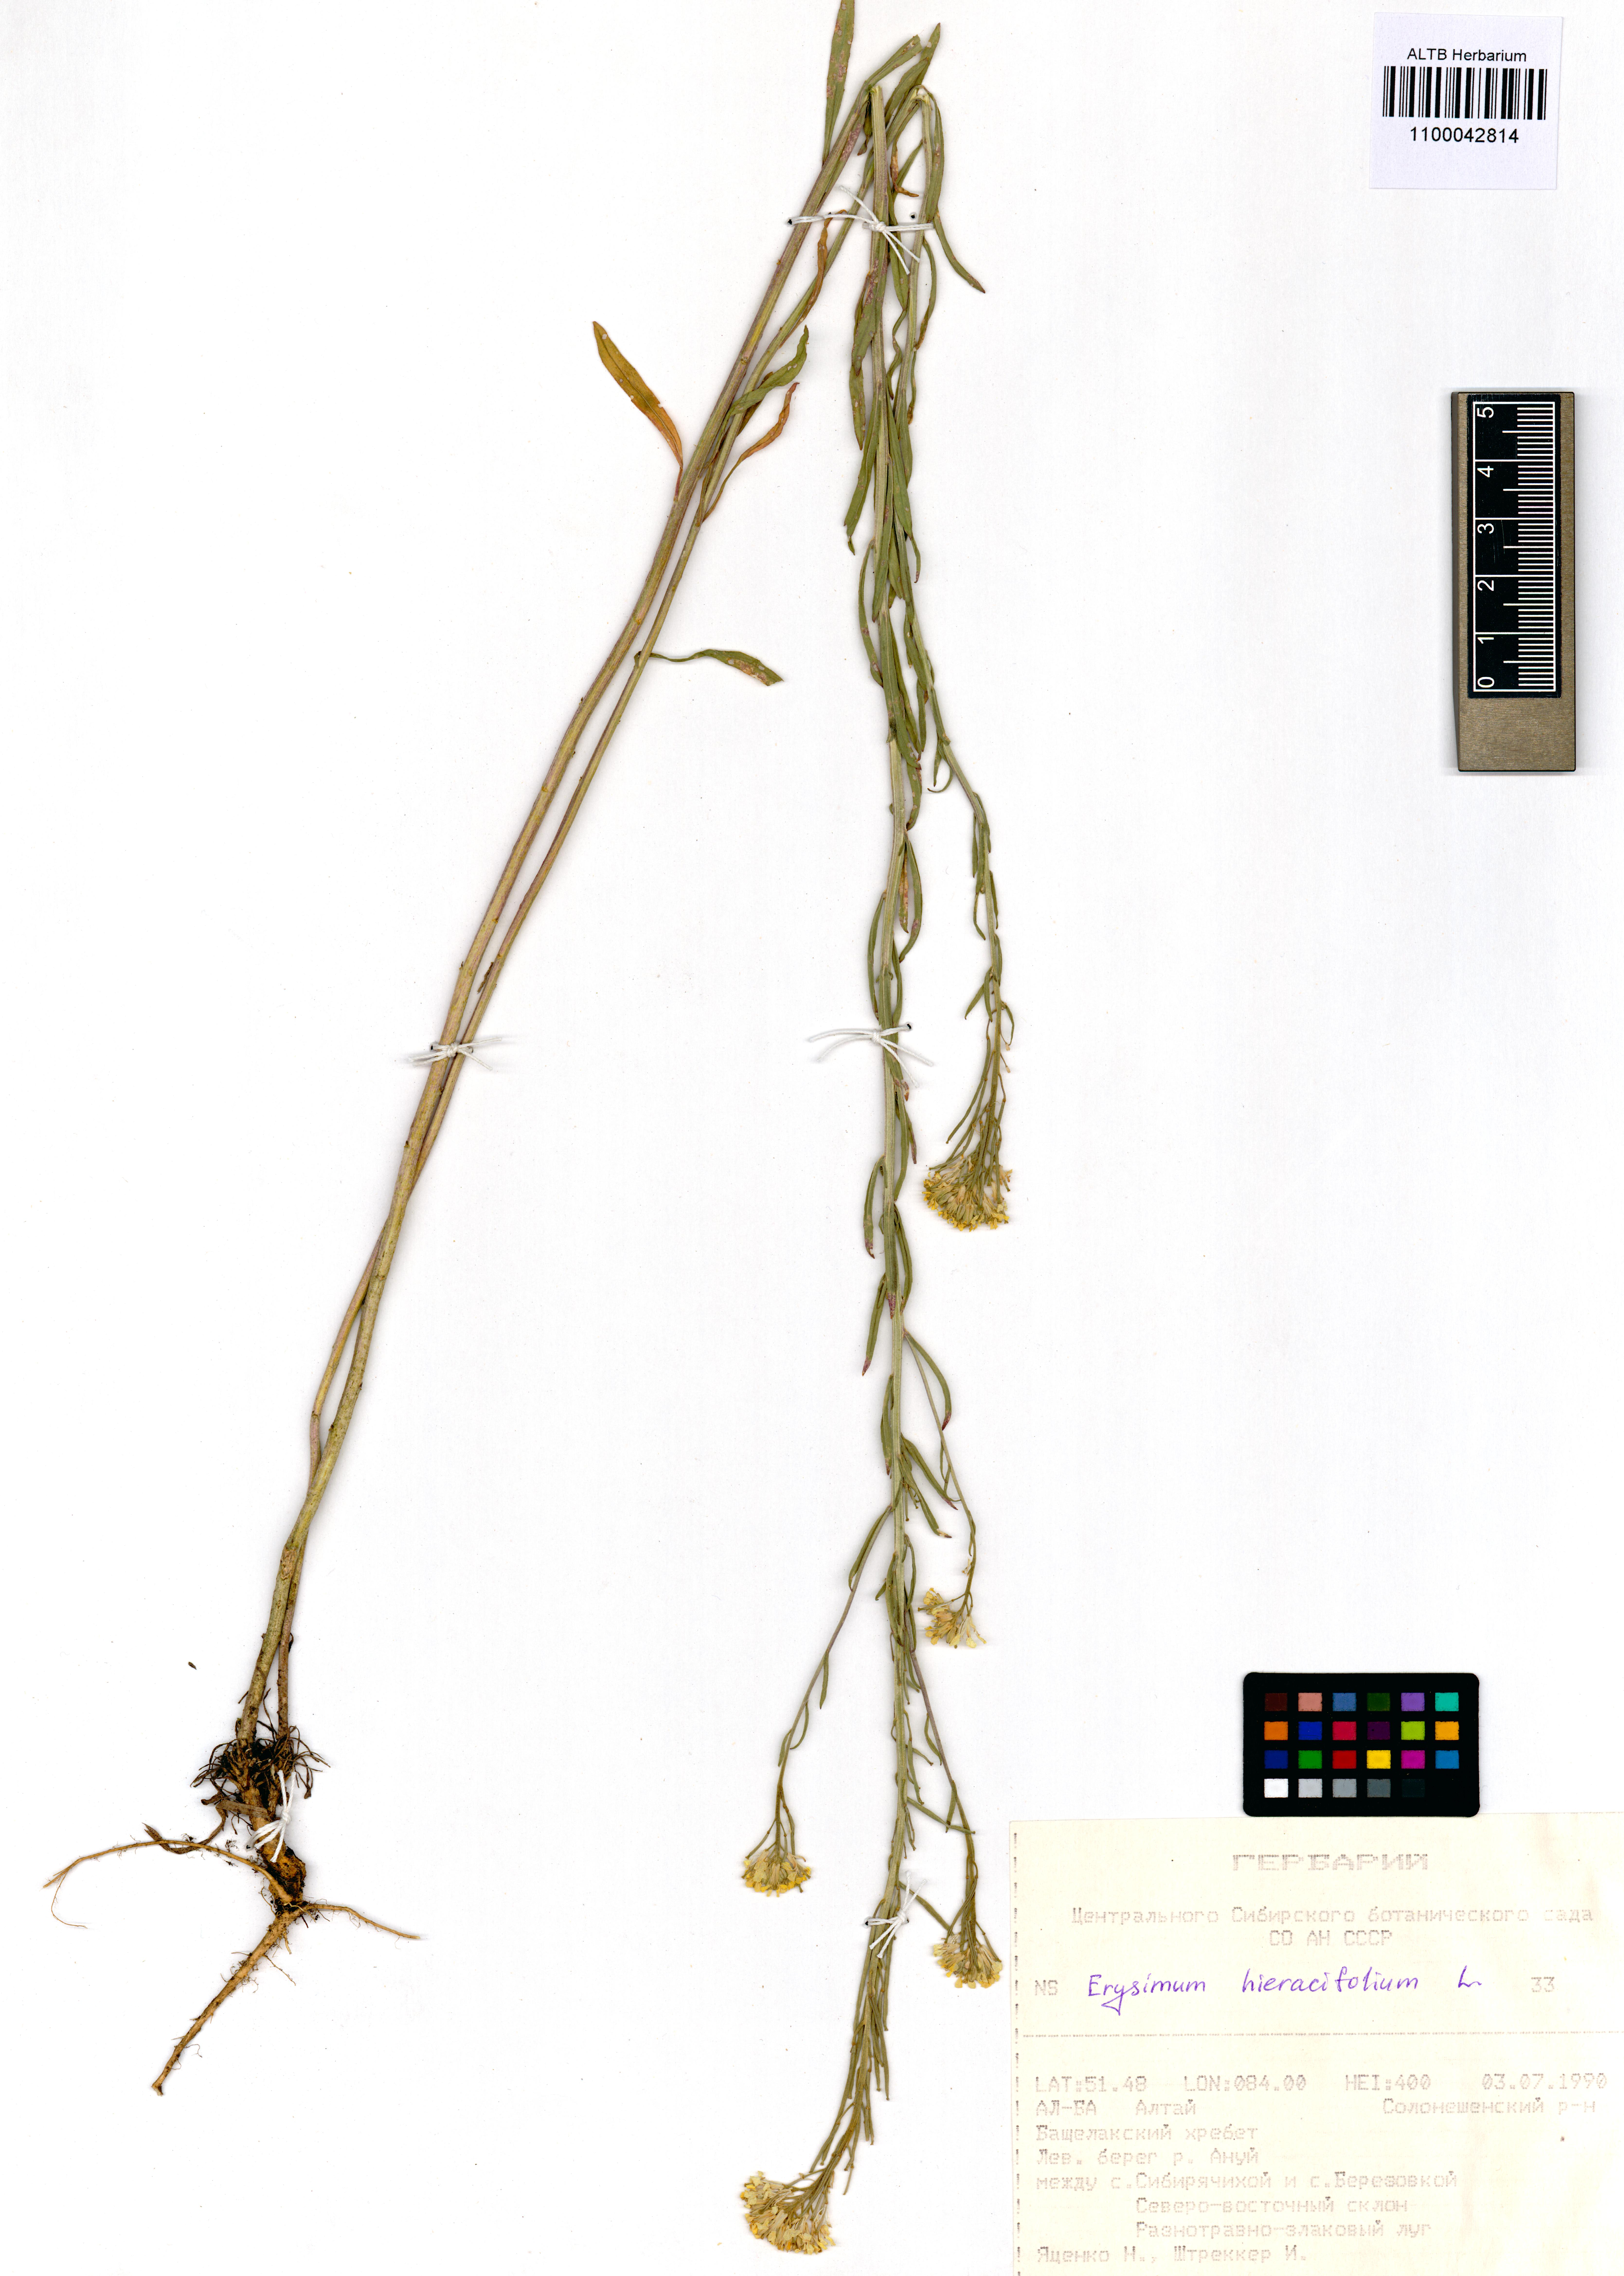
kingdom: Plantae
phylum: Tracheophyta
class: Magnoliopsida
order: Brassicales
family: Brassicaceae
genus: Erysimum
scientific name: Erysimum hieraciifolium
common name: European wallflower
